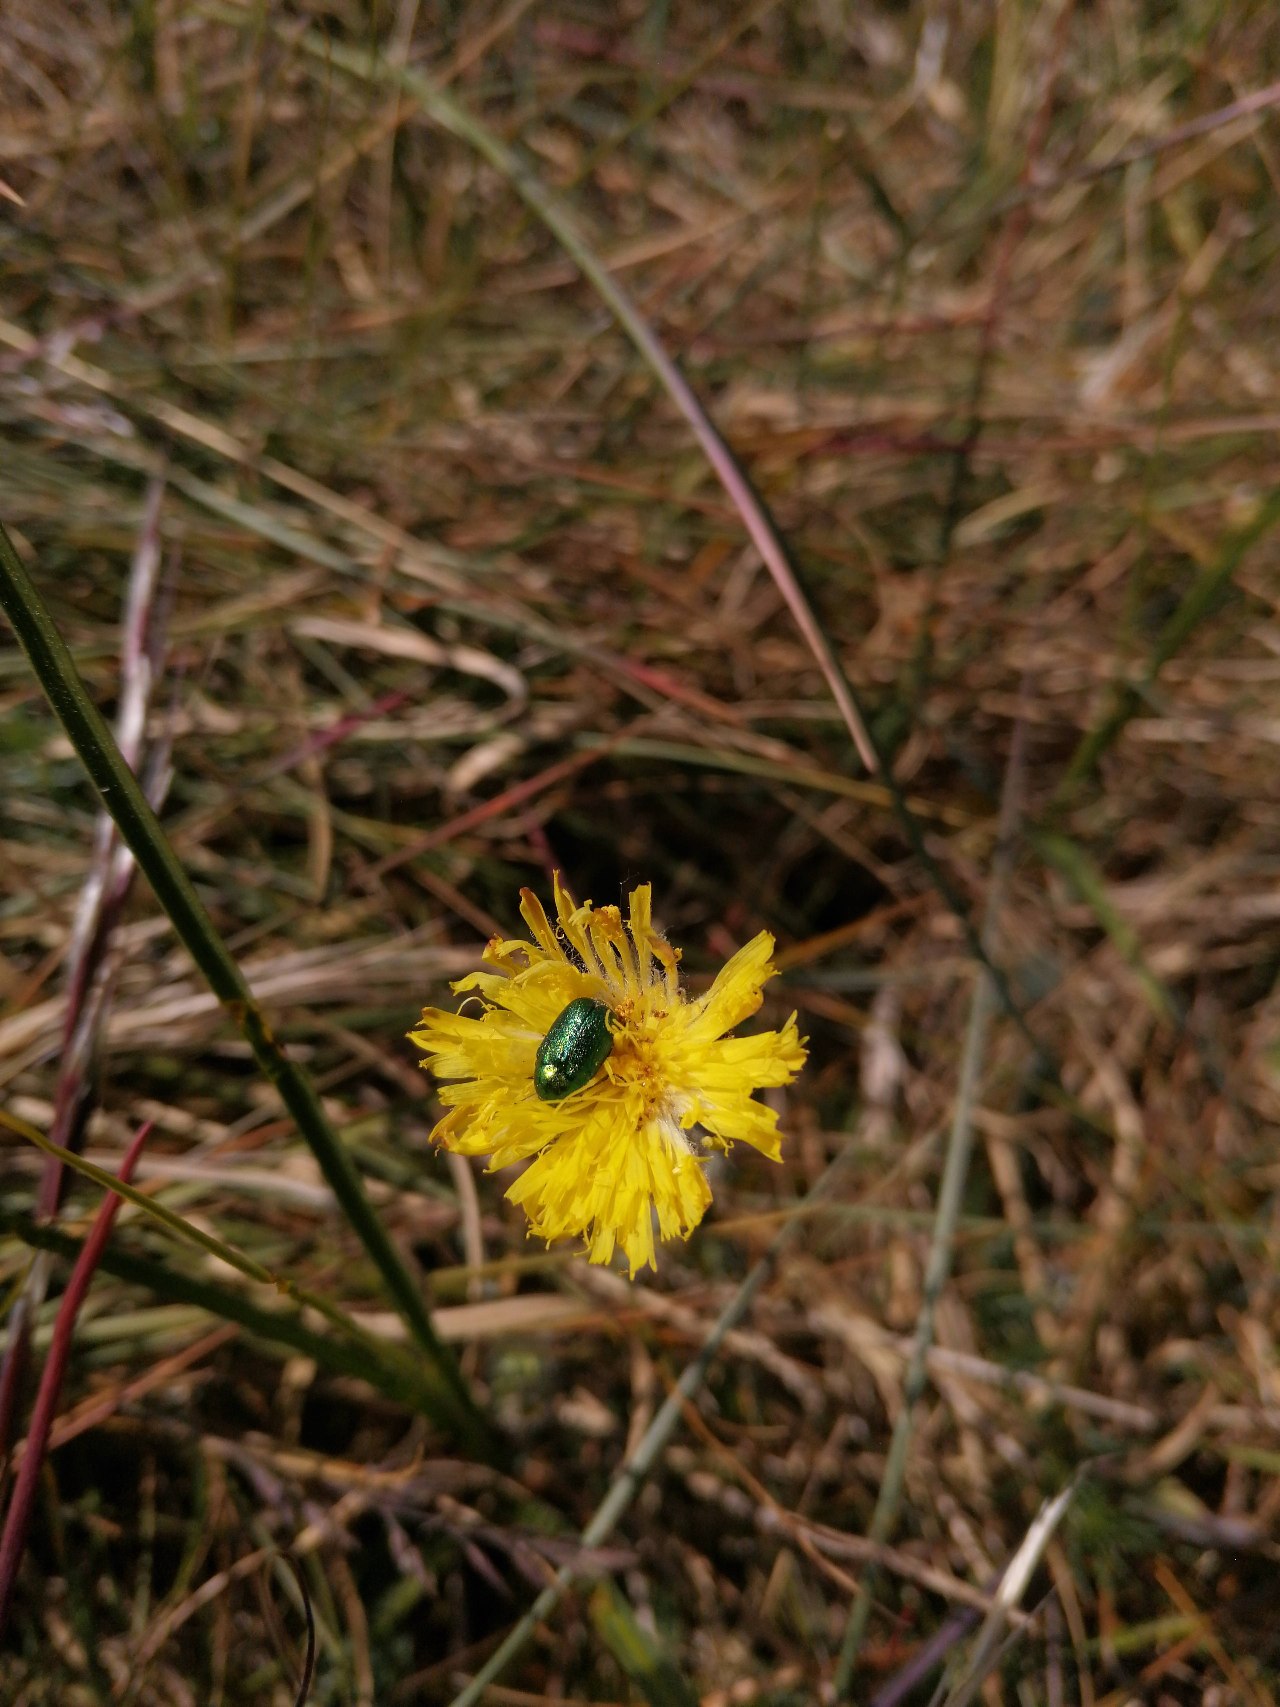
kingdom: Plantae
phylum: Tracheophyta
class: Magnoliopsida
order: Asterales
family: Asteraceae
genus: Pilosella
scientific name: Pilosella officinarum
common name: Håret høgeurt
